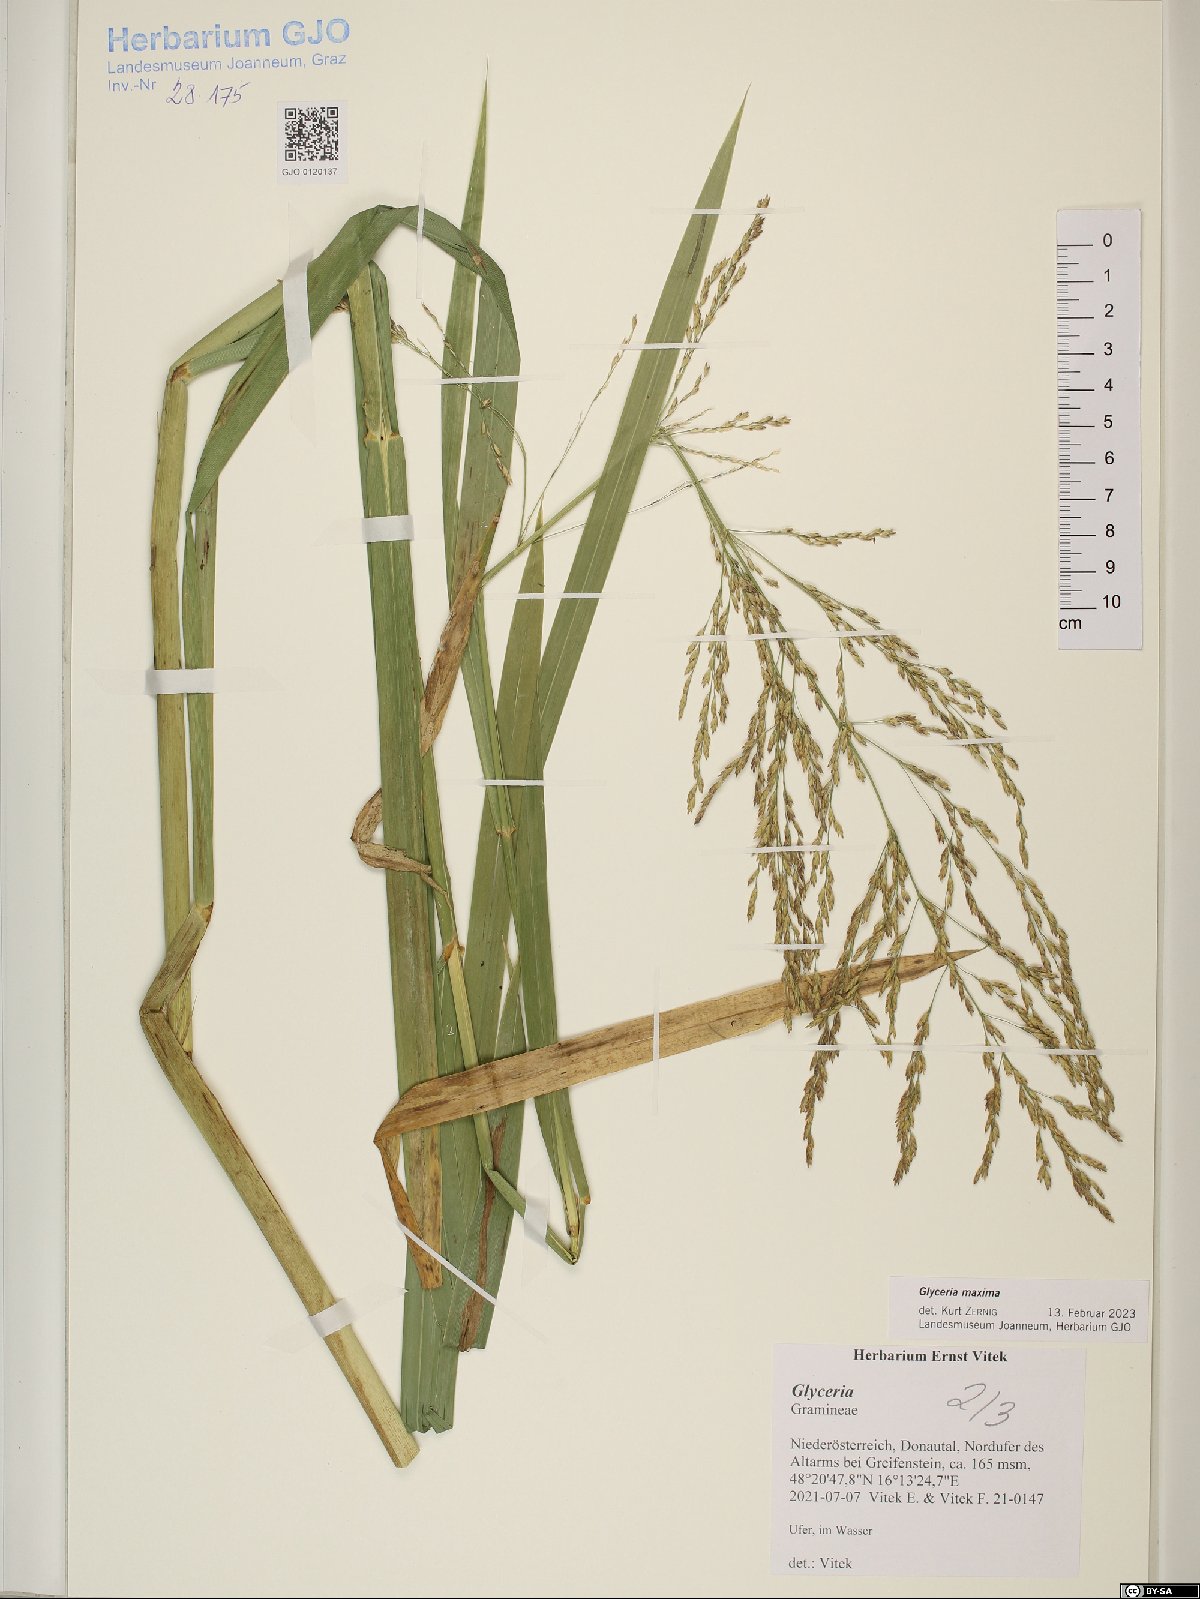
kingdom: Plantae
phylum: Tracheophyta
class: Liliopsida
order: Poales
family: Poaceae
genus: Glyceria
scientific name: Glyceria maxima
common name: Reed mannagrass
